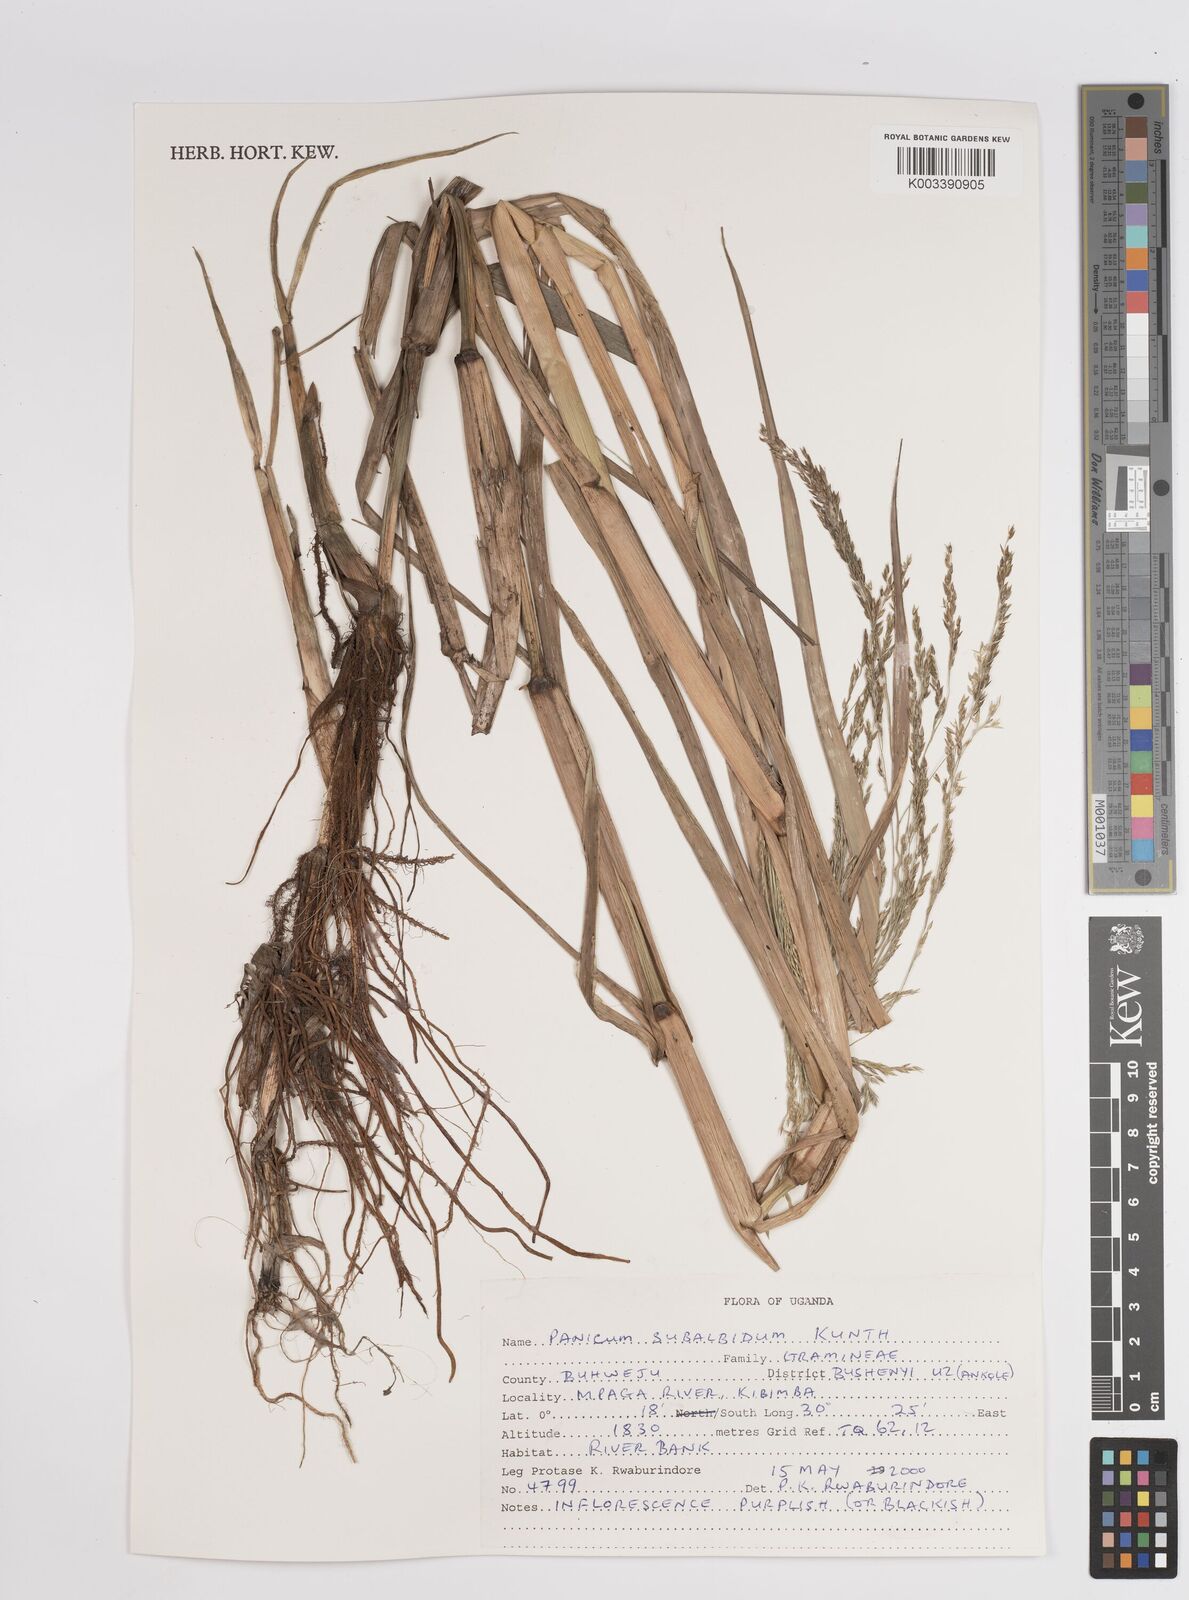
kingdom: Plantae
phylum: Tracheophyta
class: Liliopsida
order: Poales
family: Poaceae
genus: Panicum
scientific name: Panicum subalbidum
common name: Elbow buffalo grass
